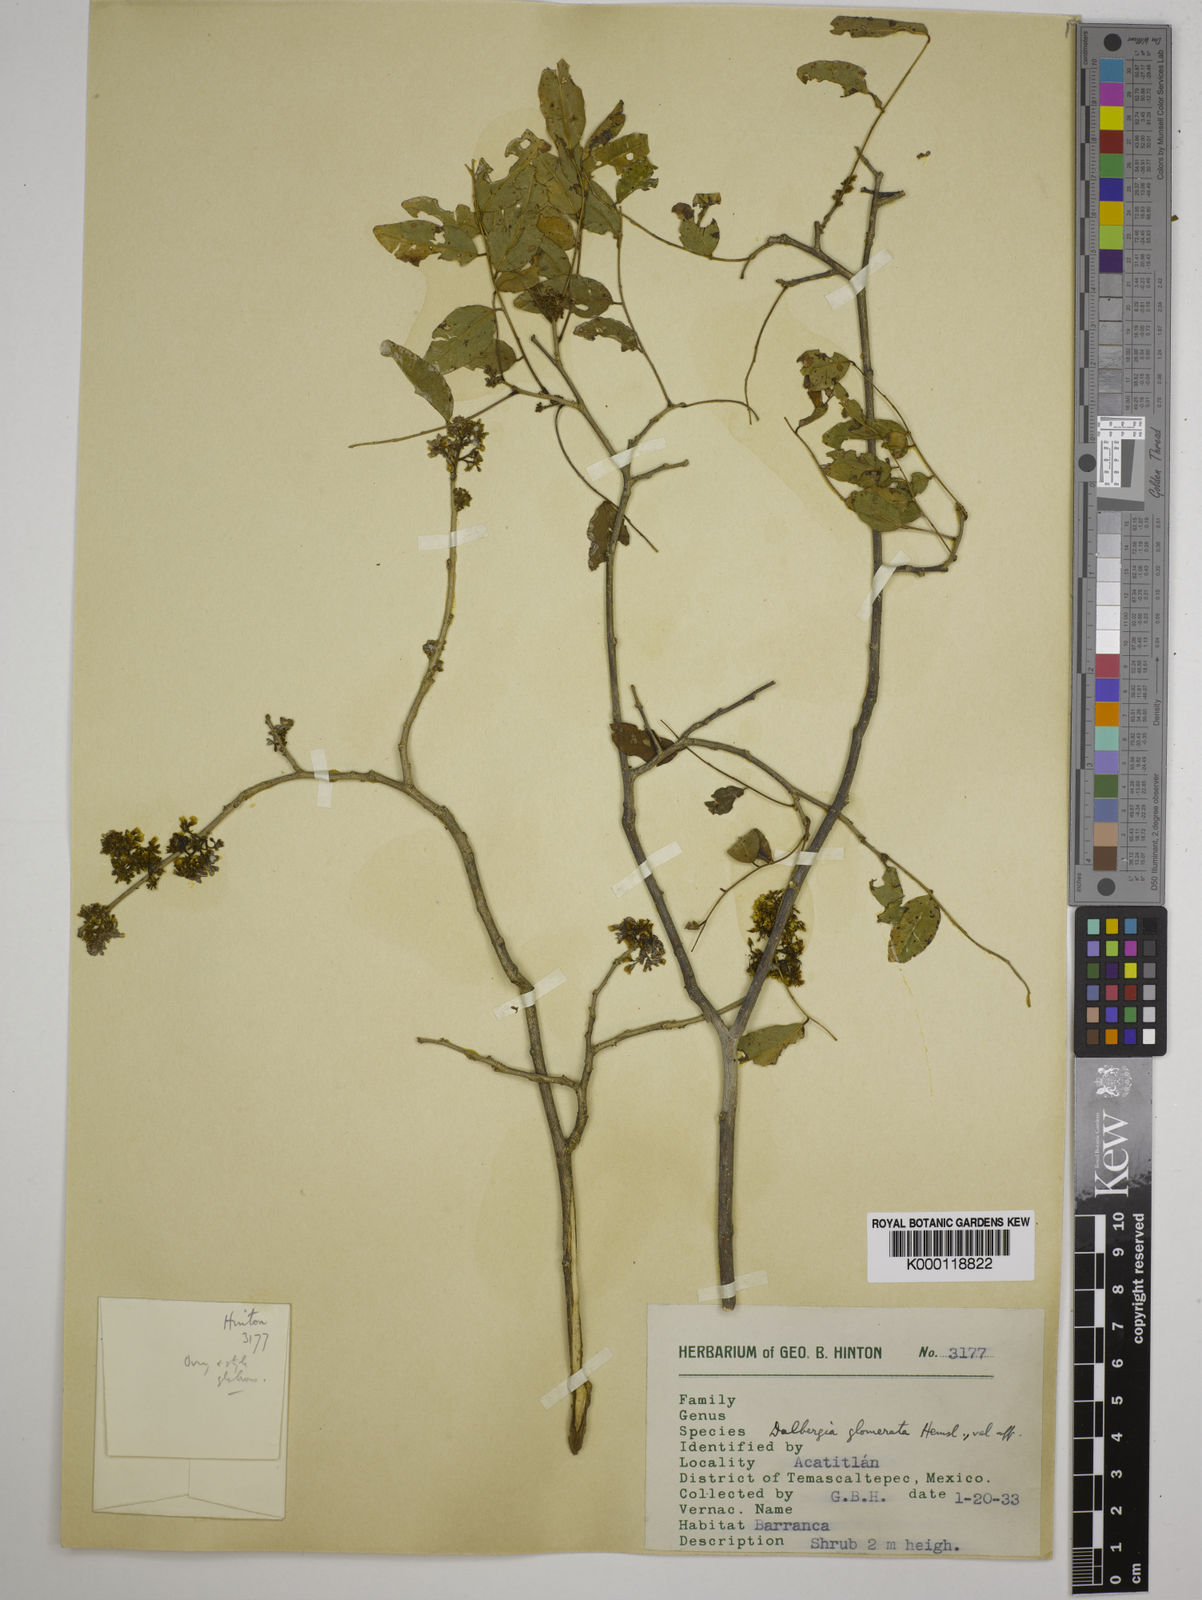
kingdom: Plantae
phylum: Tracheophyta
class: Magnoliopsida
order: Fabales
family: Fabaceae
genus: Dalbergia
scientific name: Dalbergia glomerata
